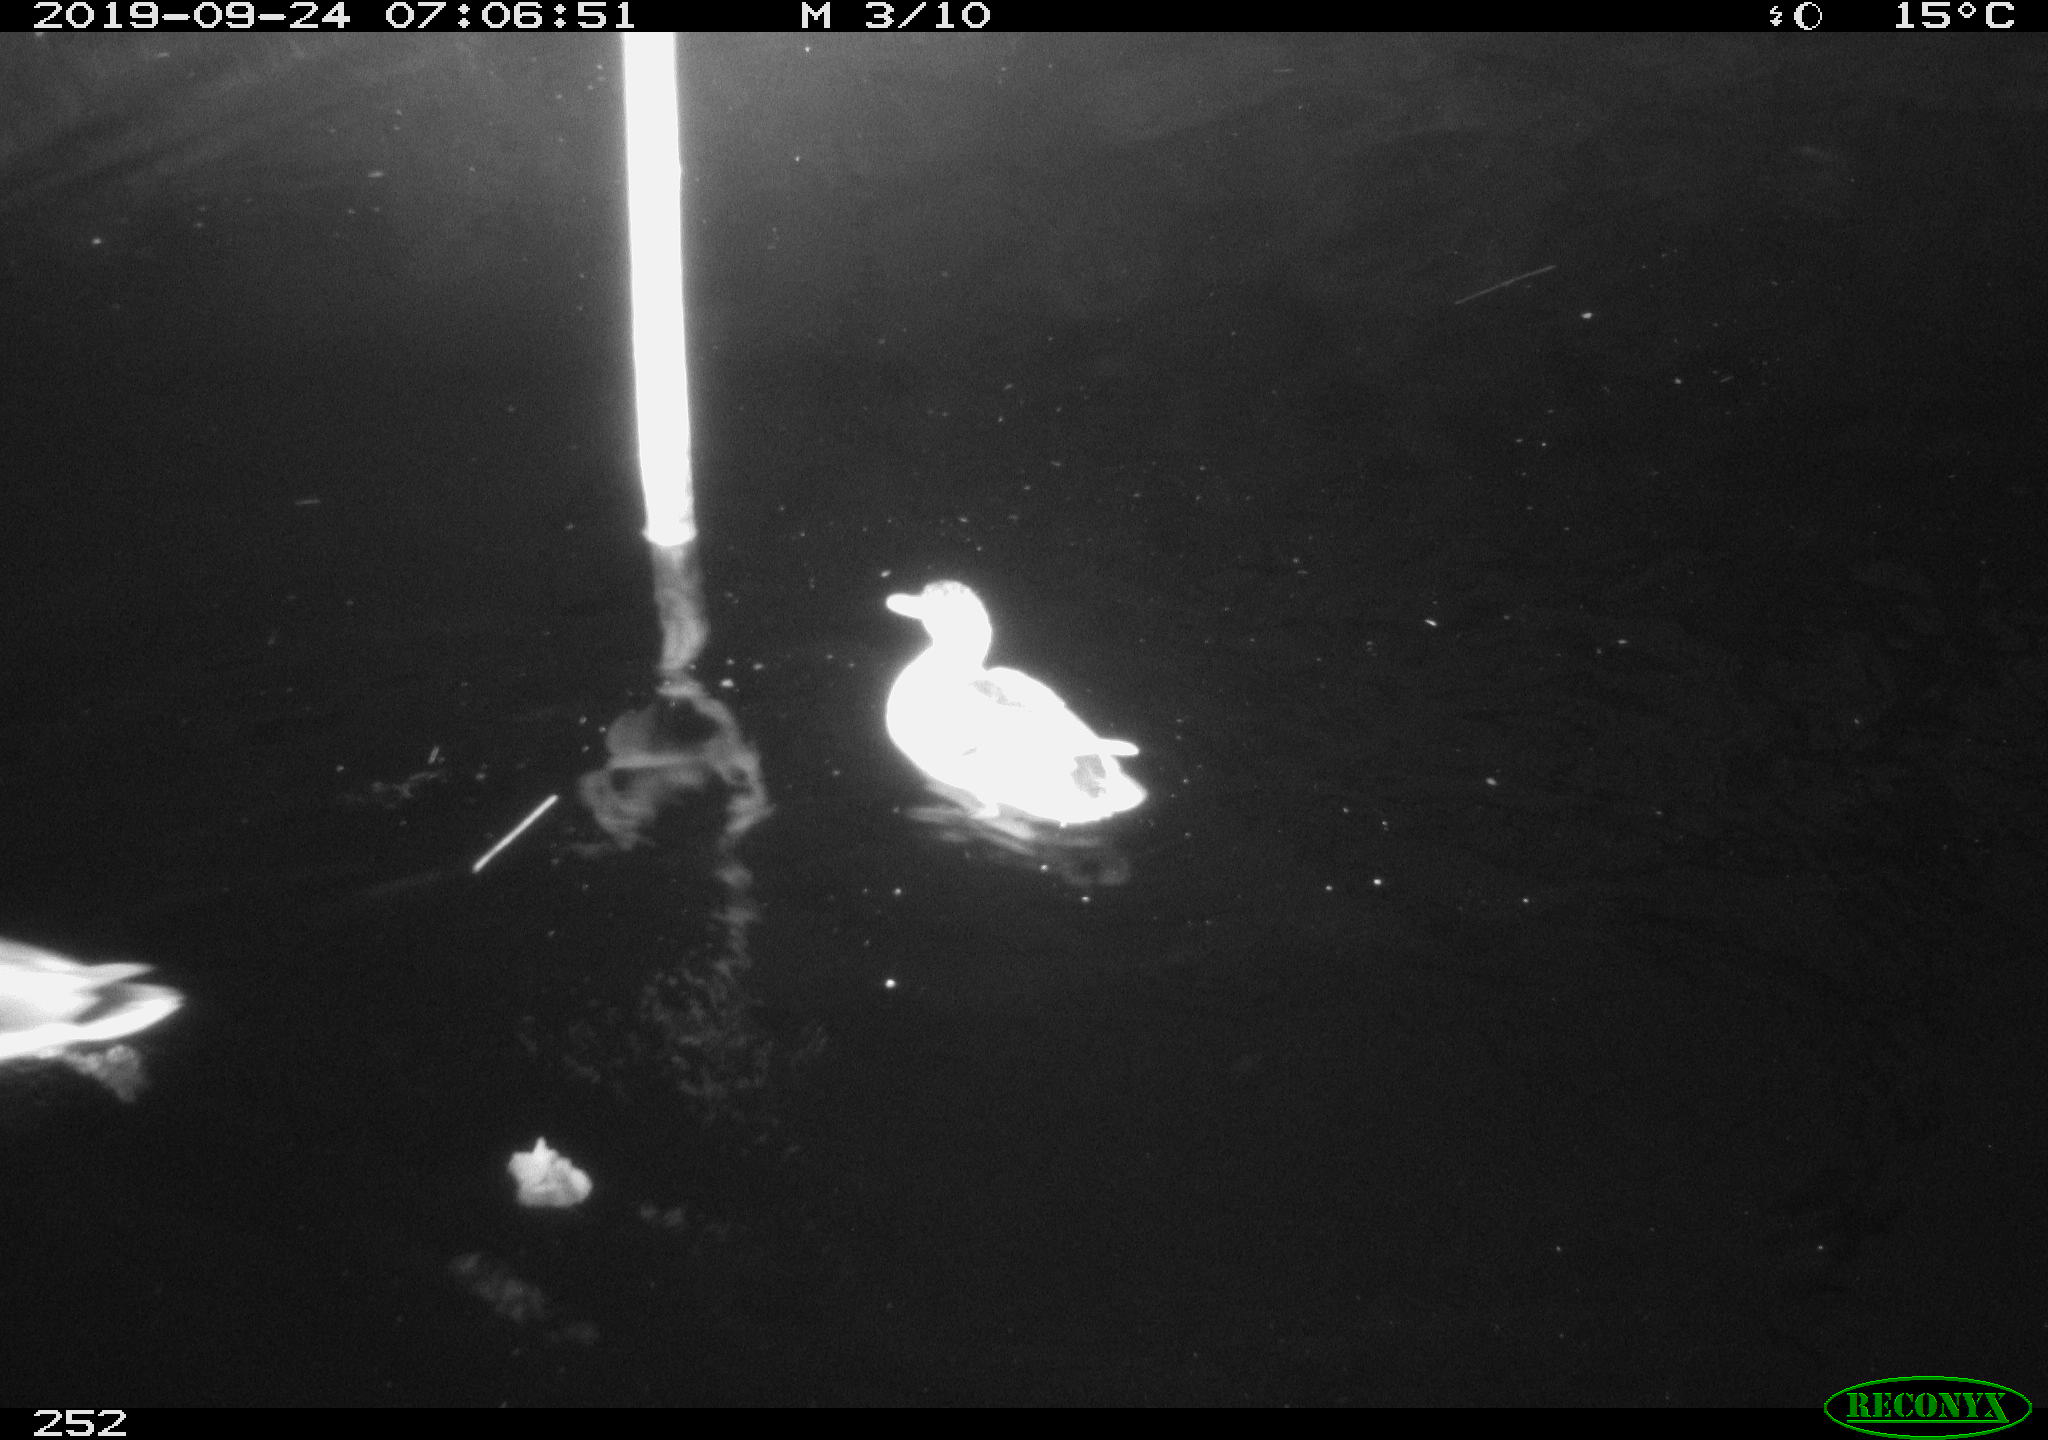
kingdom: Animalia
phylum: Chordata
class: Aves
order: Anseriformes
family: Anatidae
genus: Anas
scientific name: Anas platyrhynchos
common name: Mallard
